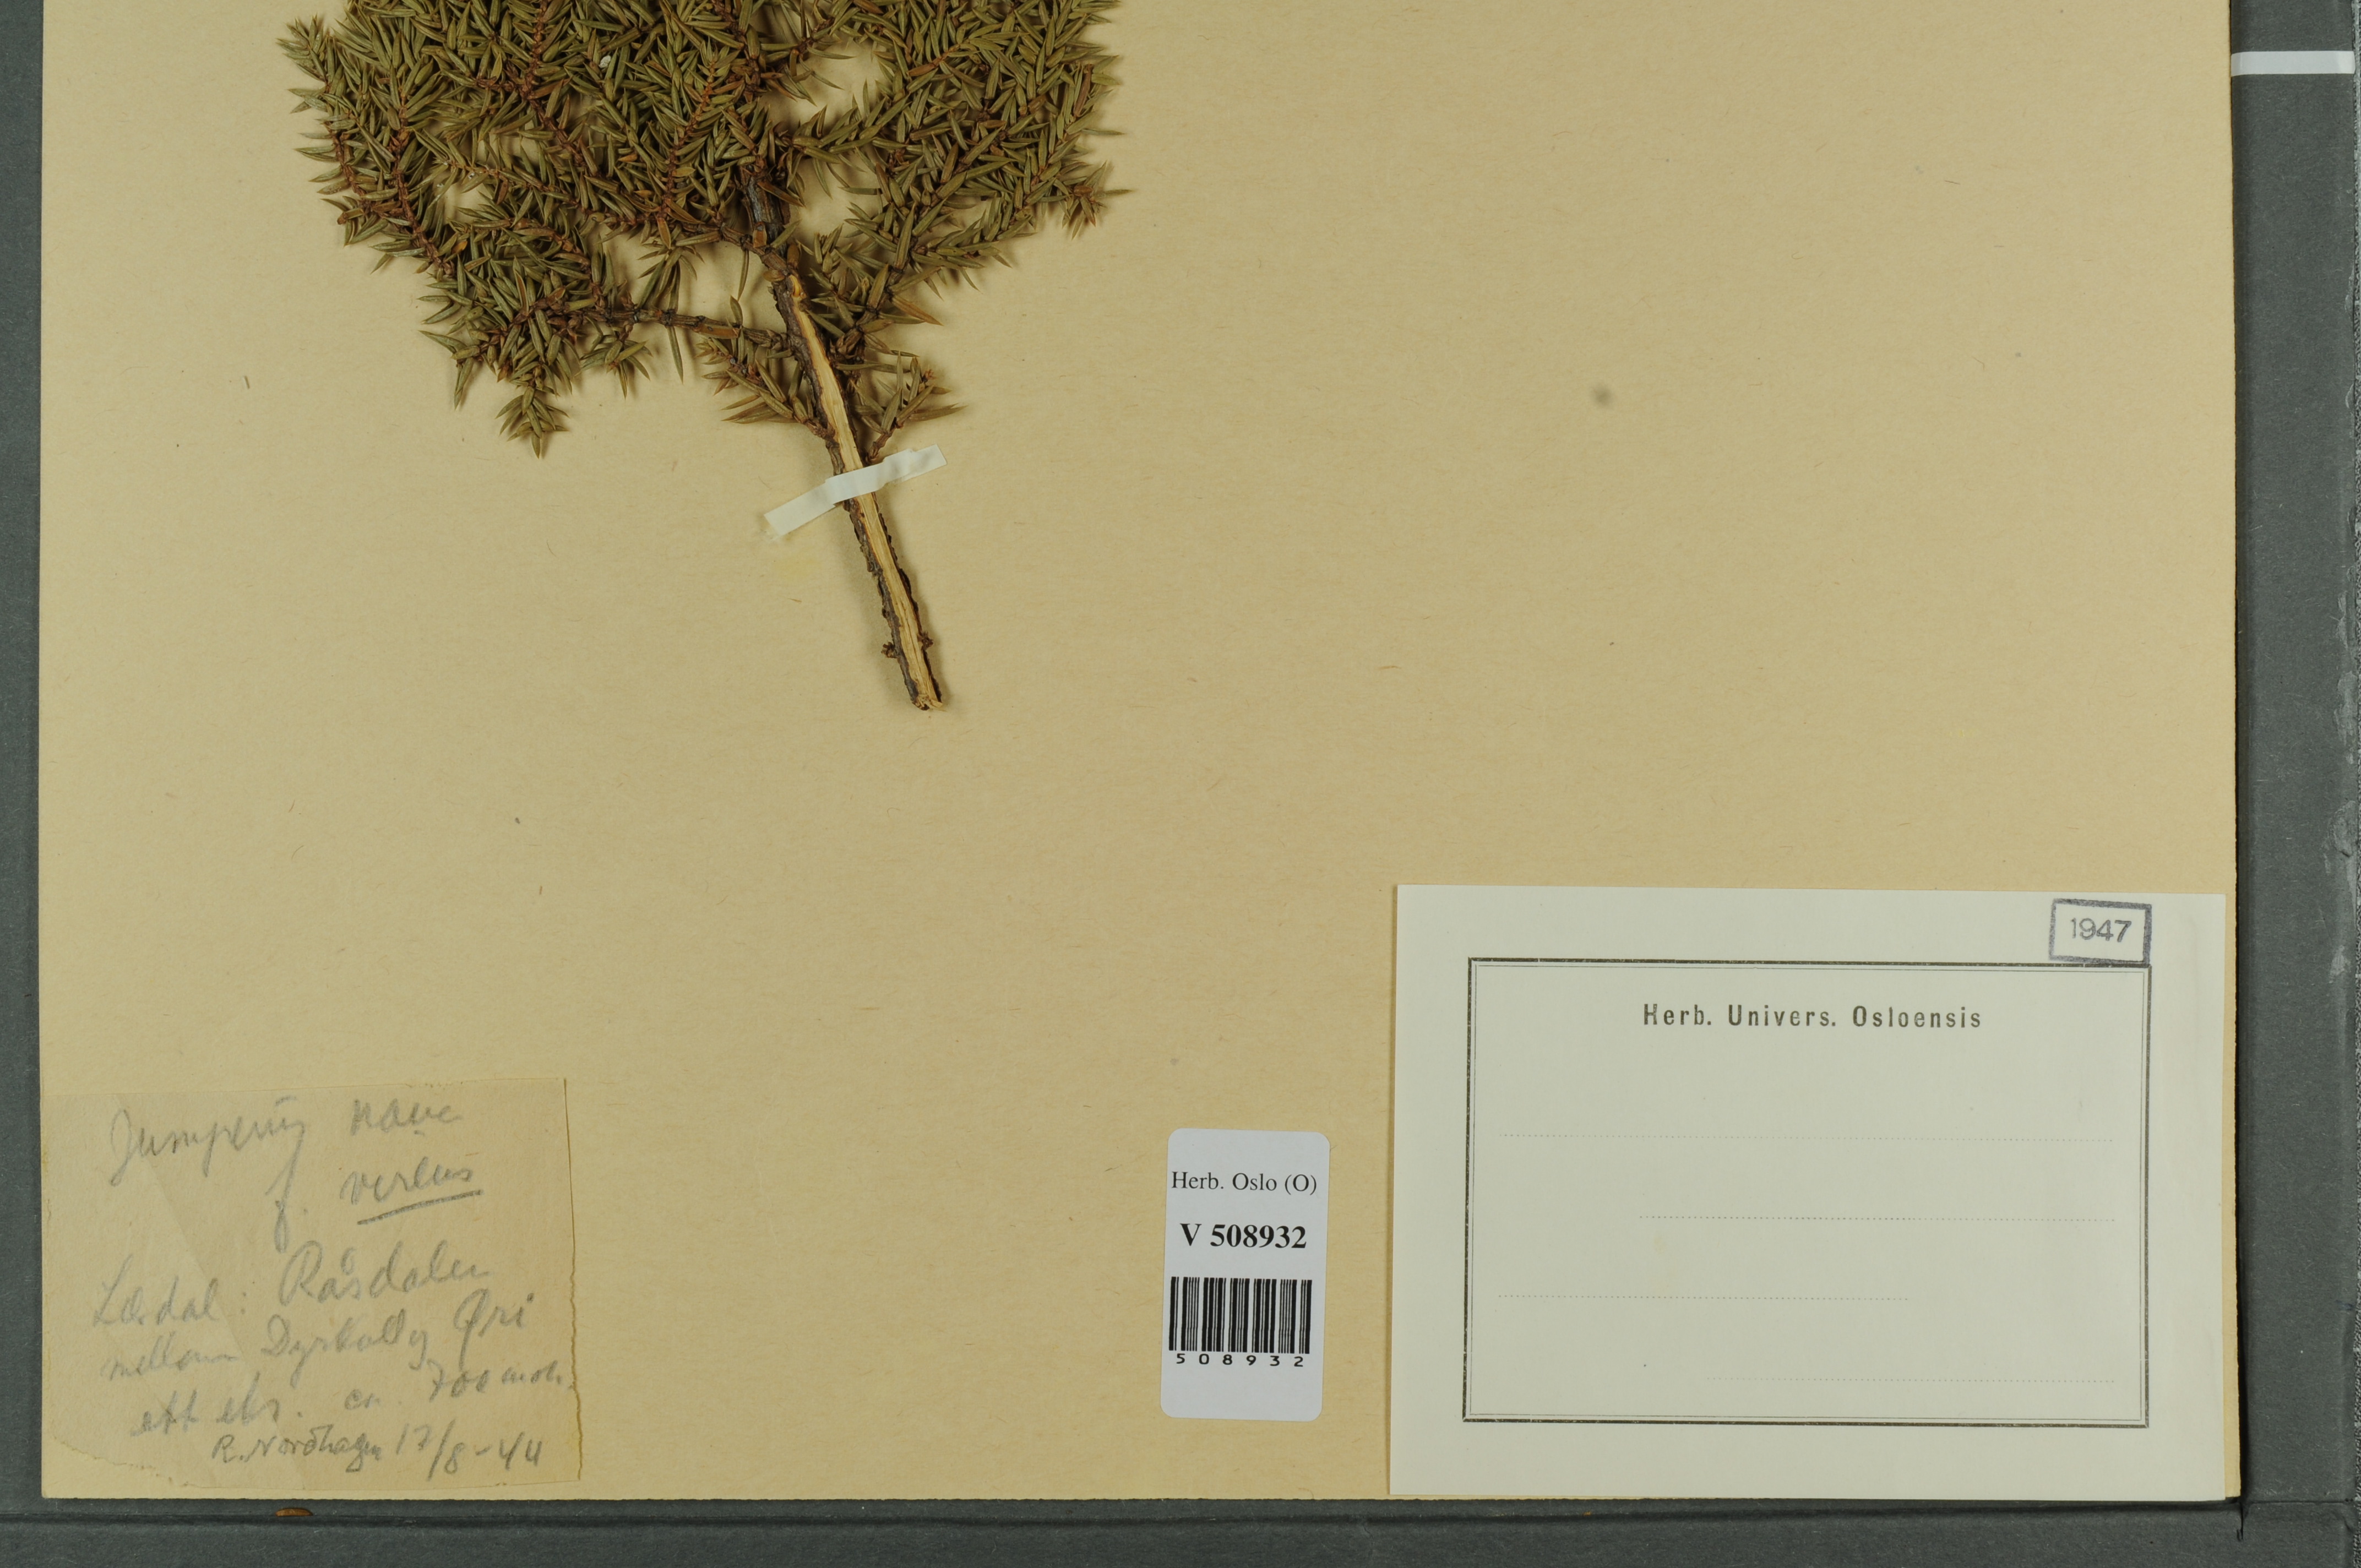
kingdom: Plantae
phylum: Tracheophyta
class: Pinopsida
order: Pinales
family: Cupressaceae
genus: Juniperus
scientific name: Juniperus communis
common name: Common juniper
